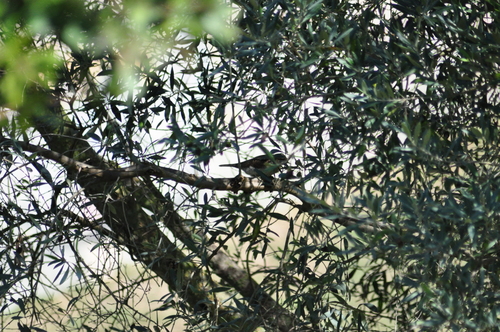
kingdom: Animalia
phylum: Chordata
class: Aves
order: Piciformes
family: Picidae
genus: Jynx
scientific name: Jynx torquilla
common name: Eurasian wryneck
